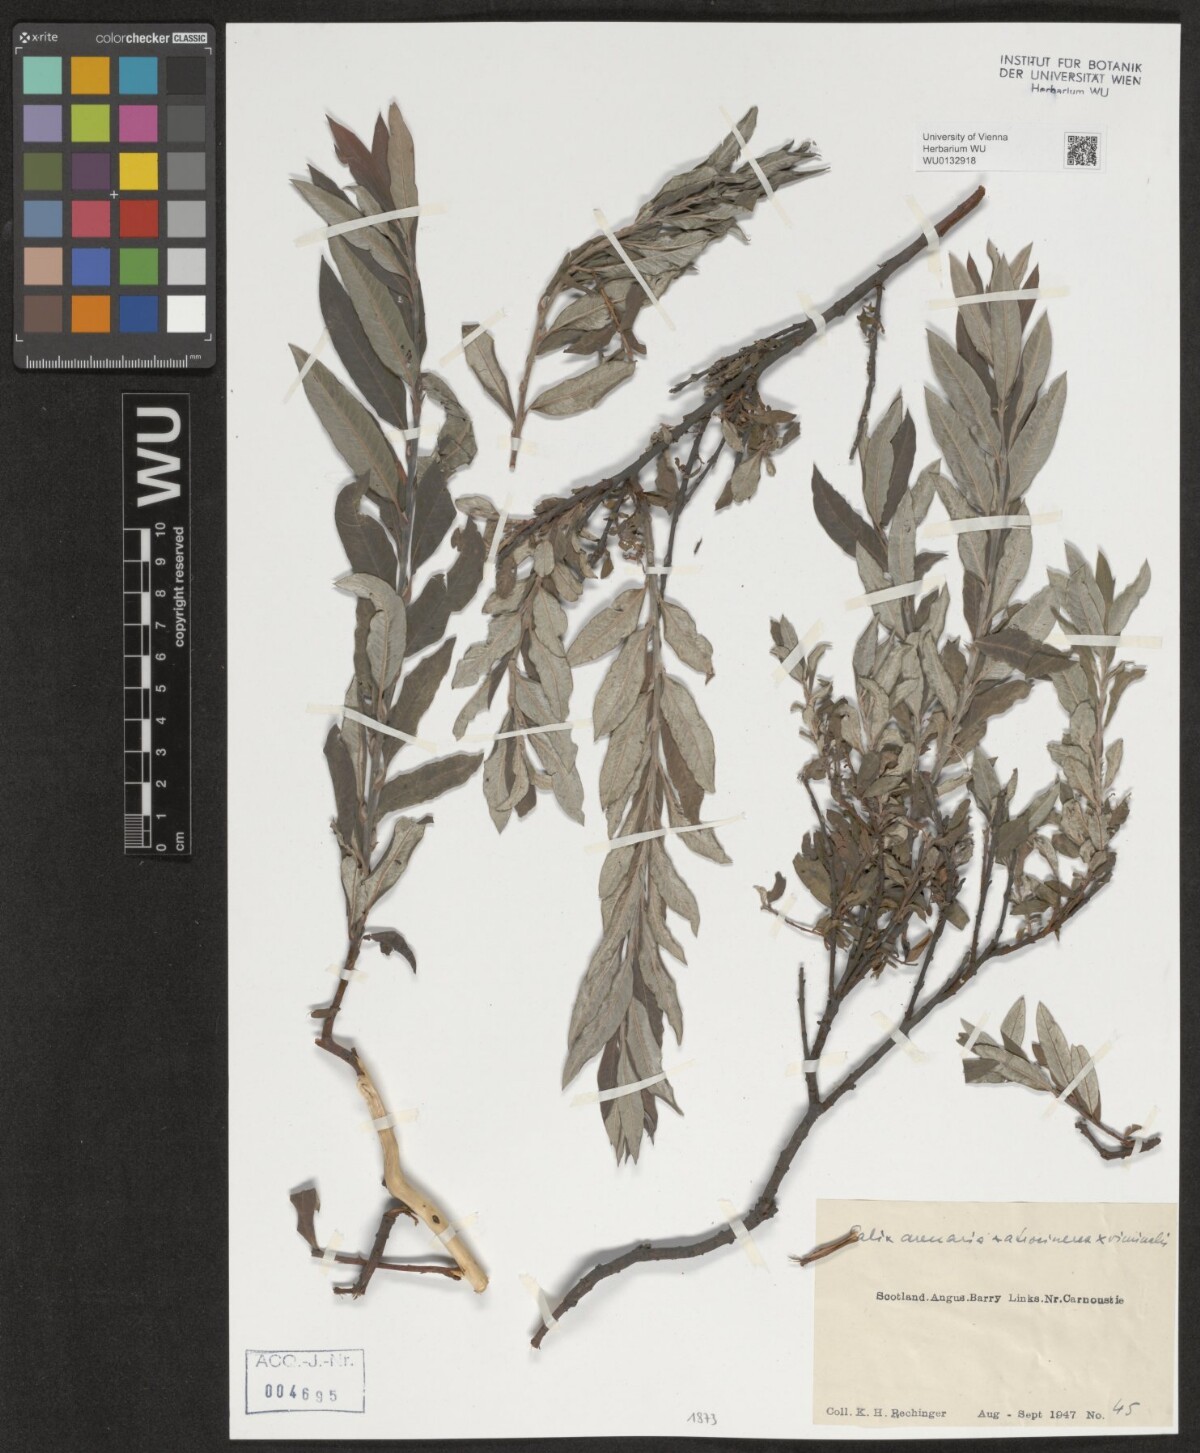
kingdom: Plantae
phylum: Tracheophyta
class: Magnoliopsida
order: Malpighiales
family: Salicaceae
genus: Salix
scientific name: Salix repens
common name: Creeping willow
